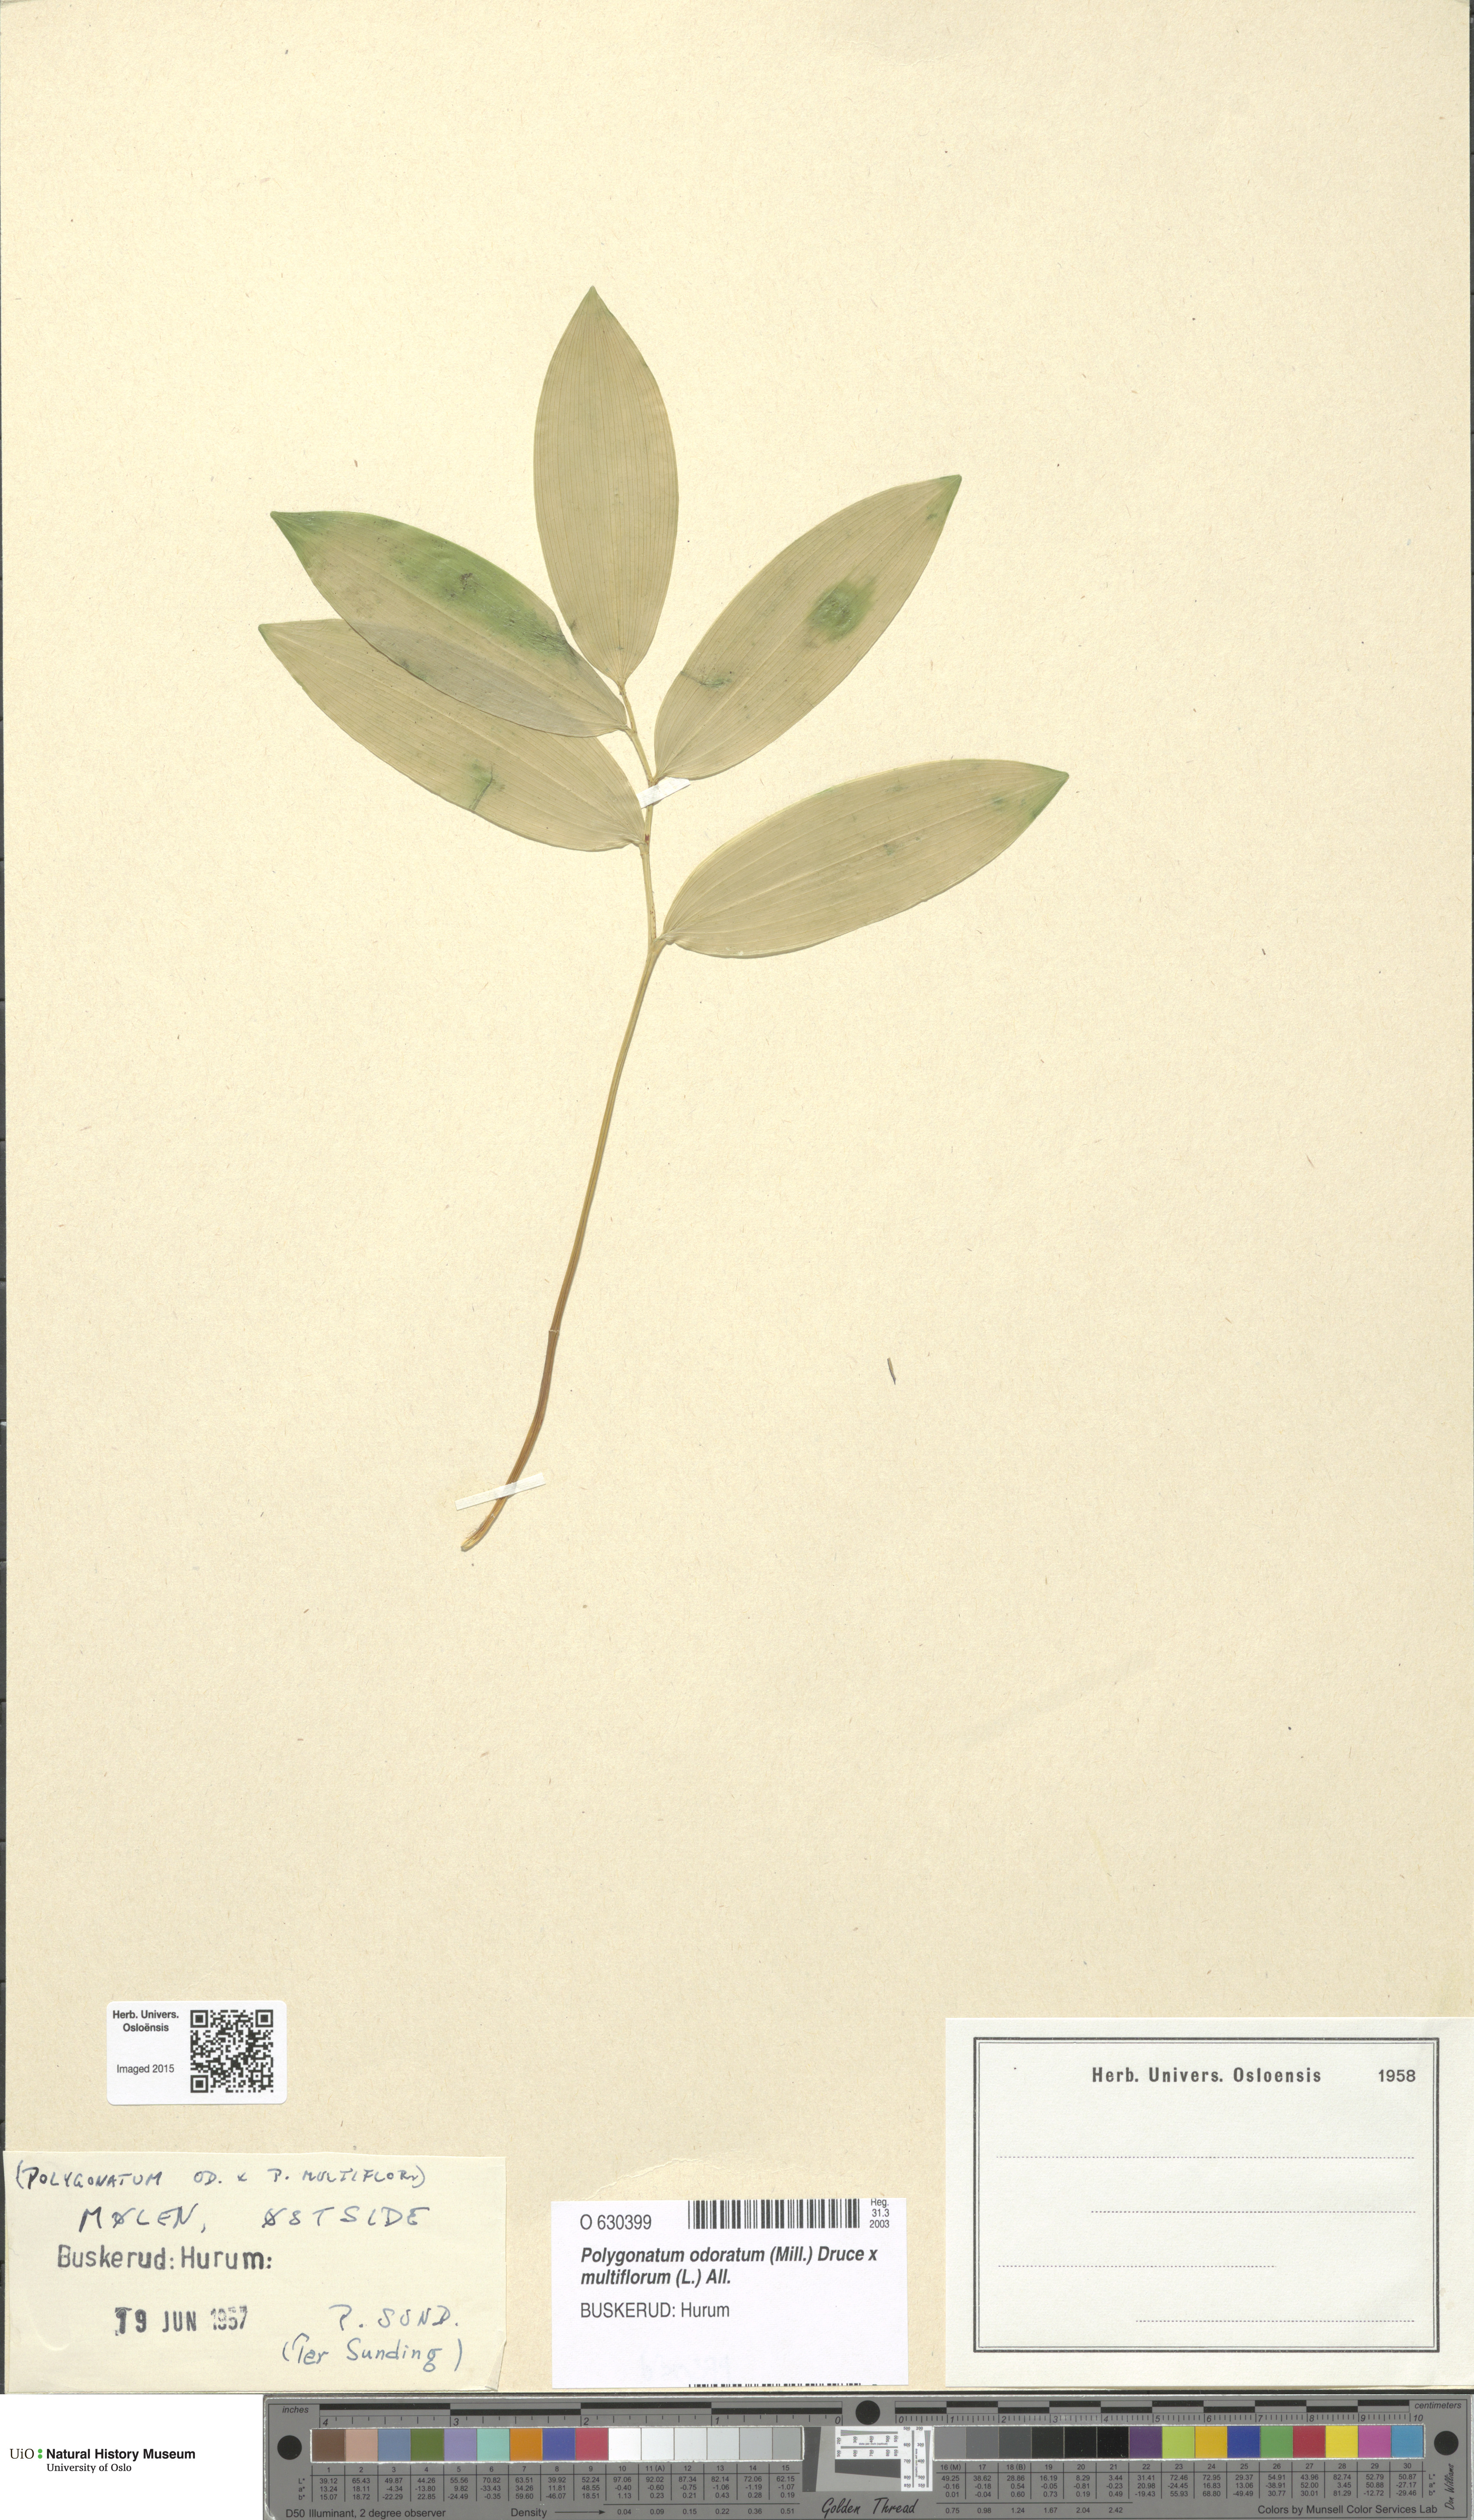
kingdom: Plantae
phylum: Tracheophyta
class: Liliopsida
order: Asparagales
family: Asparagaceae
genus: Polygonatum
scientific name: Polygonatum
